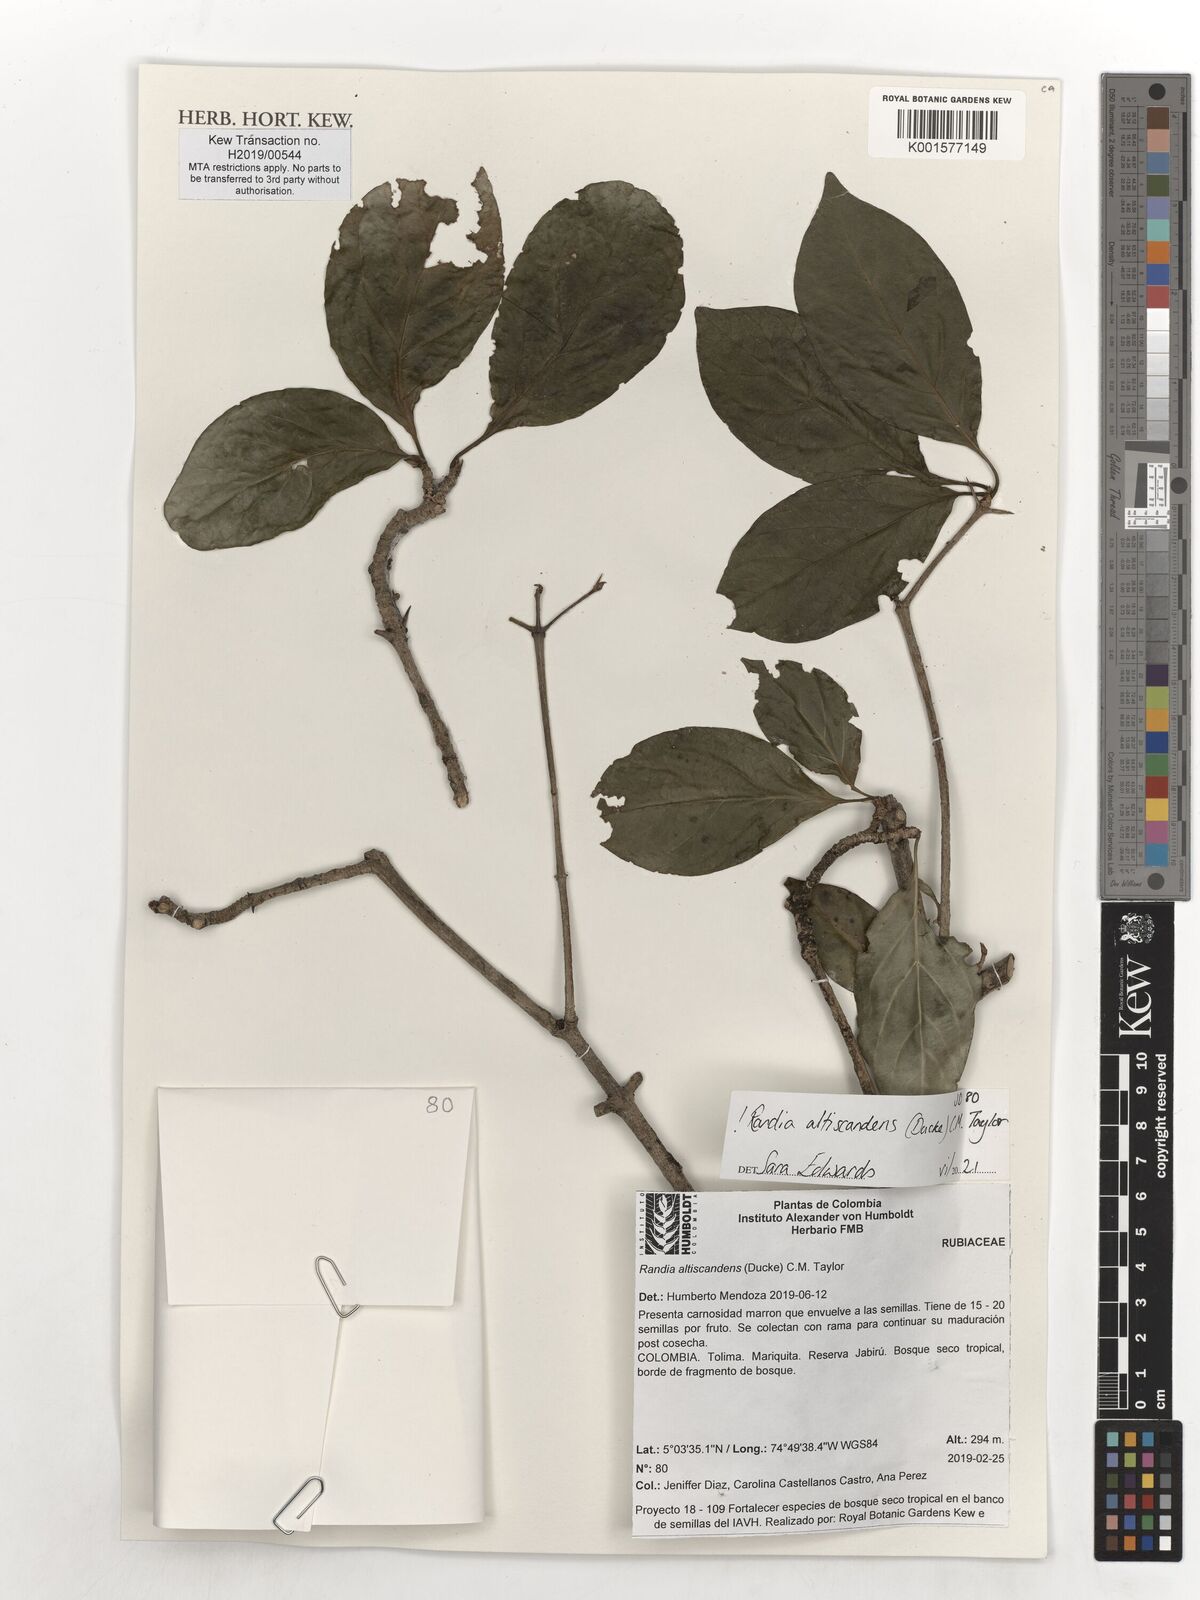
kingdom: Plantae
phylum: Tracheophyta
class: Magnoliopsida
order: Gentianales
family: Rubiaceae
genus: Randia
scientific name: Randia altiscandens
